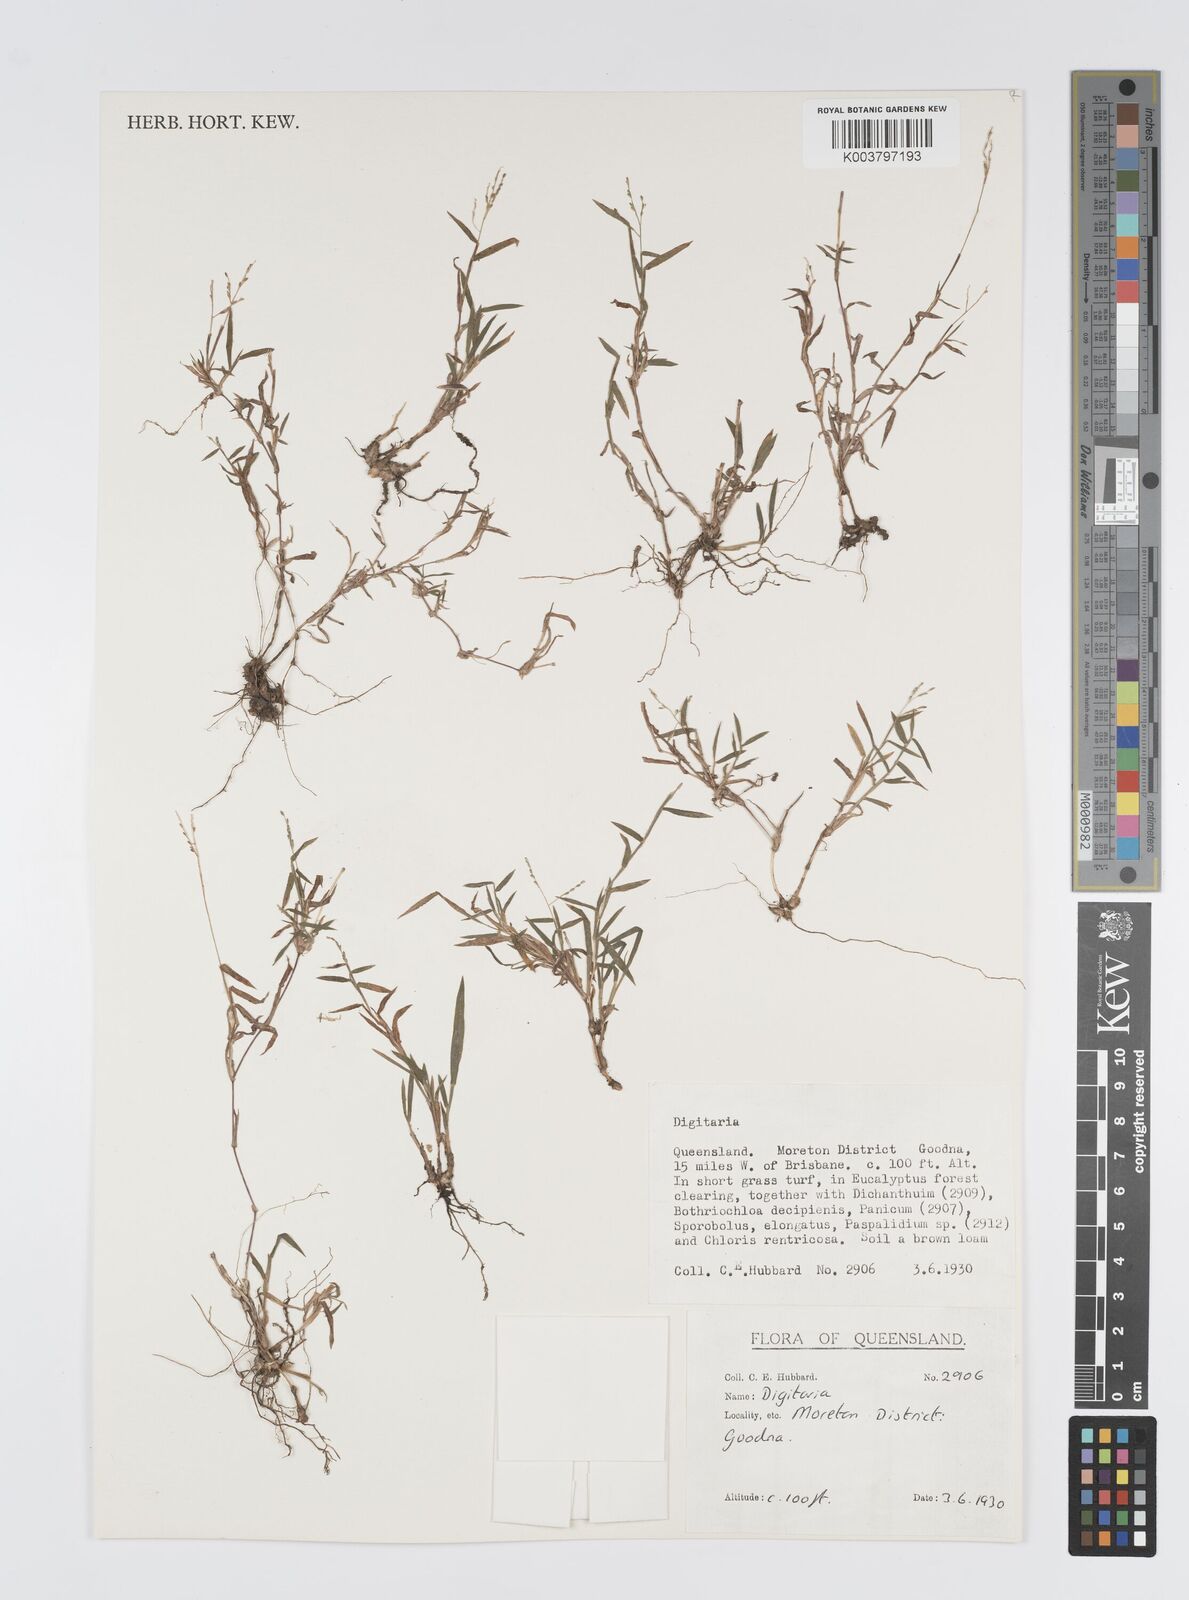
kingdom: Plantae
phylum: Tracheophyta
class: Liliopsida
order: Poales
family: Poaceae
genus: Digitaria
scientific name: Digitaria spec
